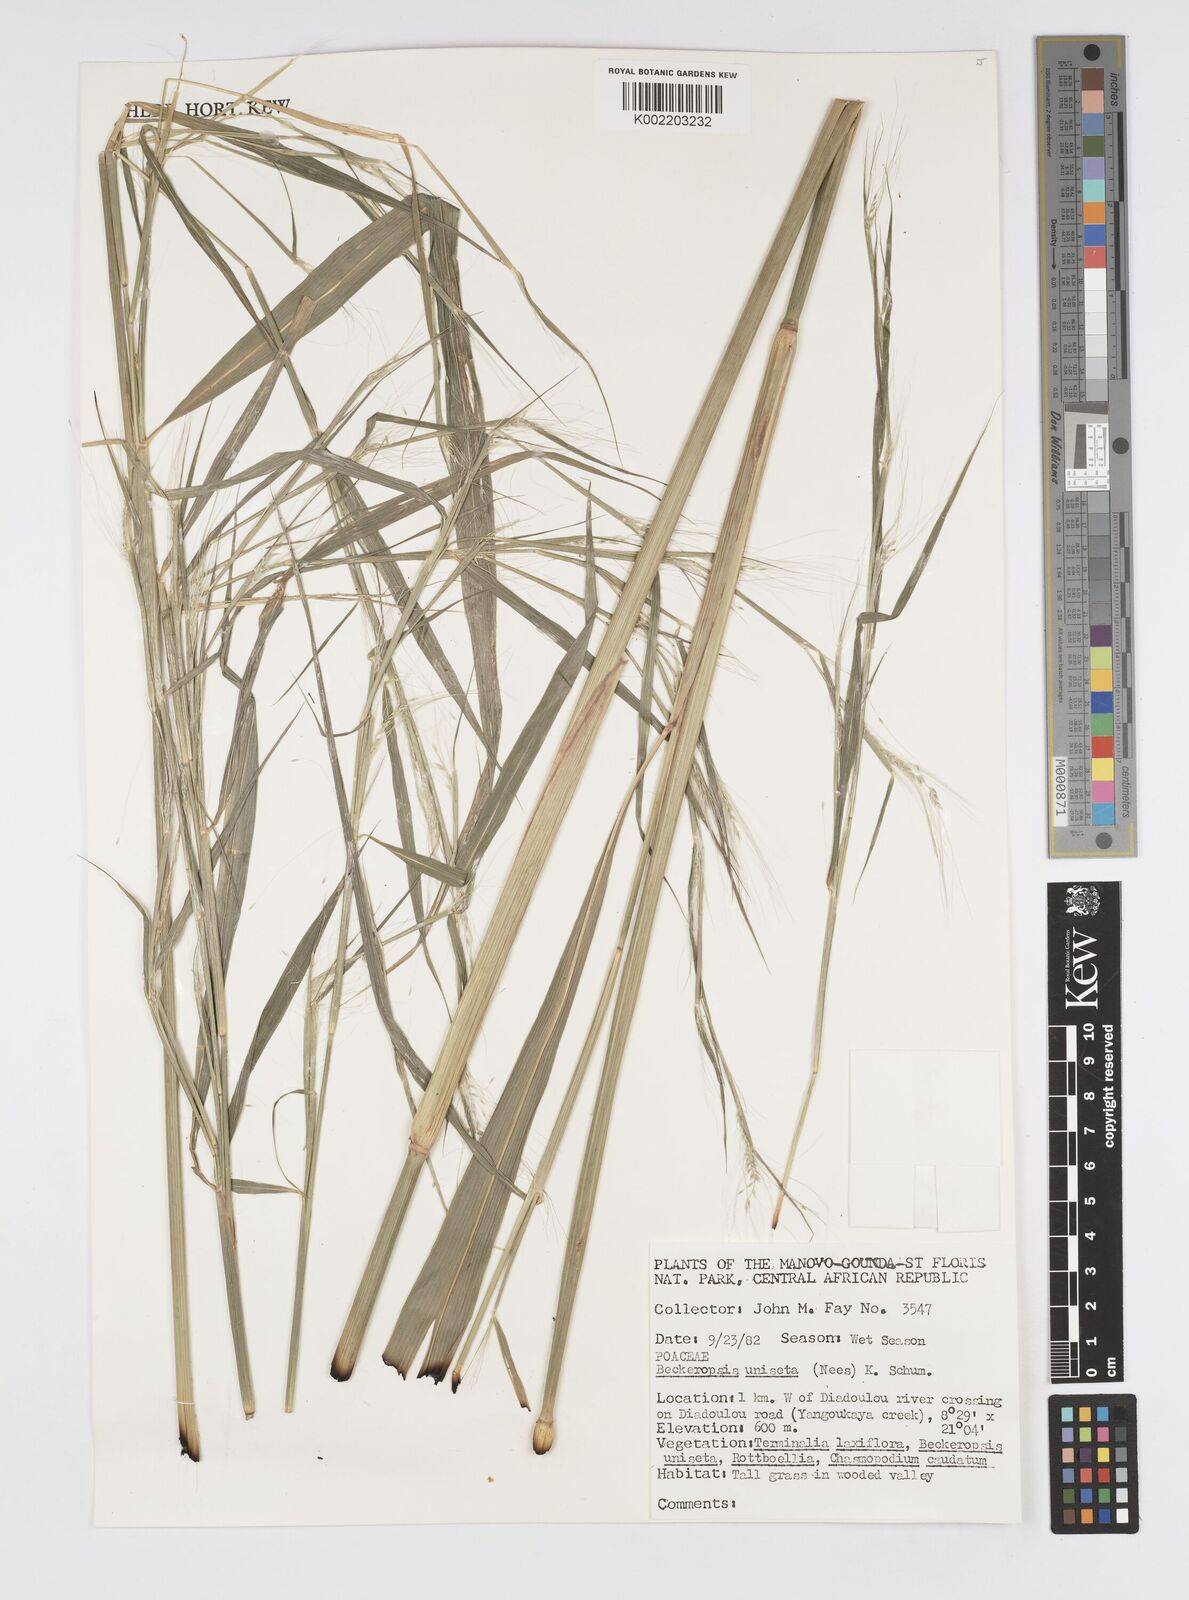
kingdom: Plantae
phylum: Tracheophyta
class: Liliopsida
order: Poales
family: Poaceae
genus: Cenchrus
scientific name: Cenchrus unisetus
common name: Natal grass
